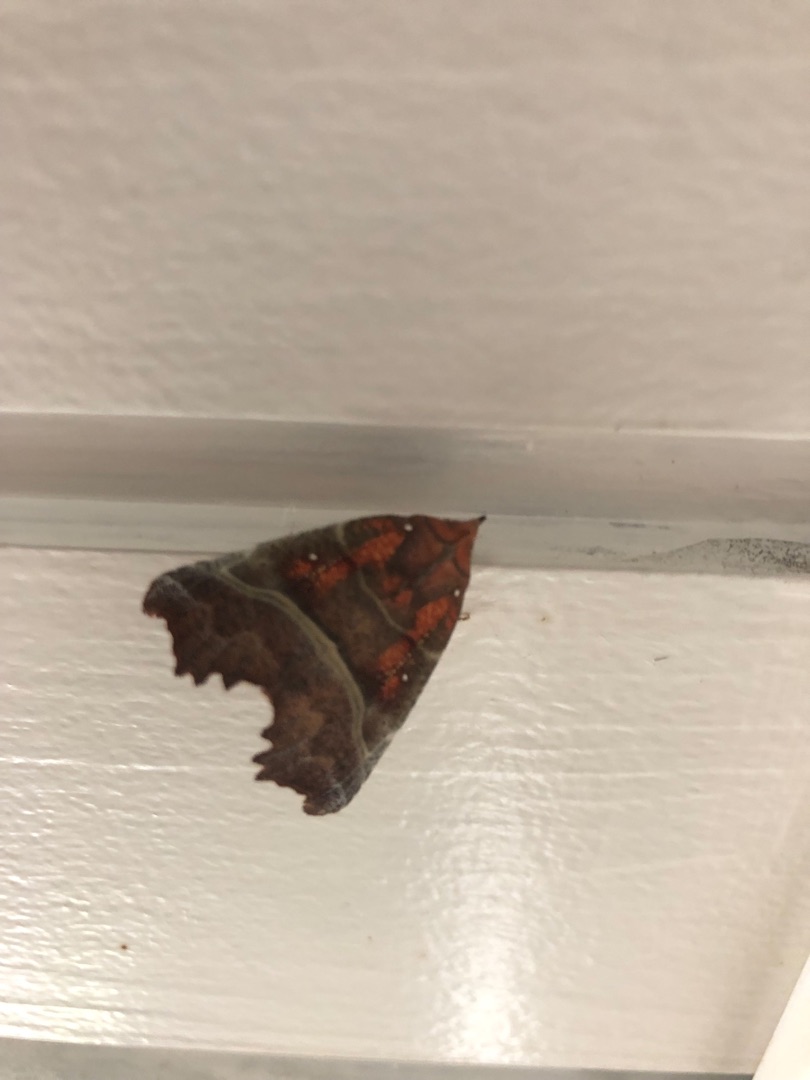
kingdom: Animalia
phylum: Arthropoda
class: Insecta
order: Lepidoptera
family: Erebidae
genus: Scoliopteryx
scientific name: Scoliopteryx libatrix
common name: Husmoderugle
